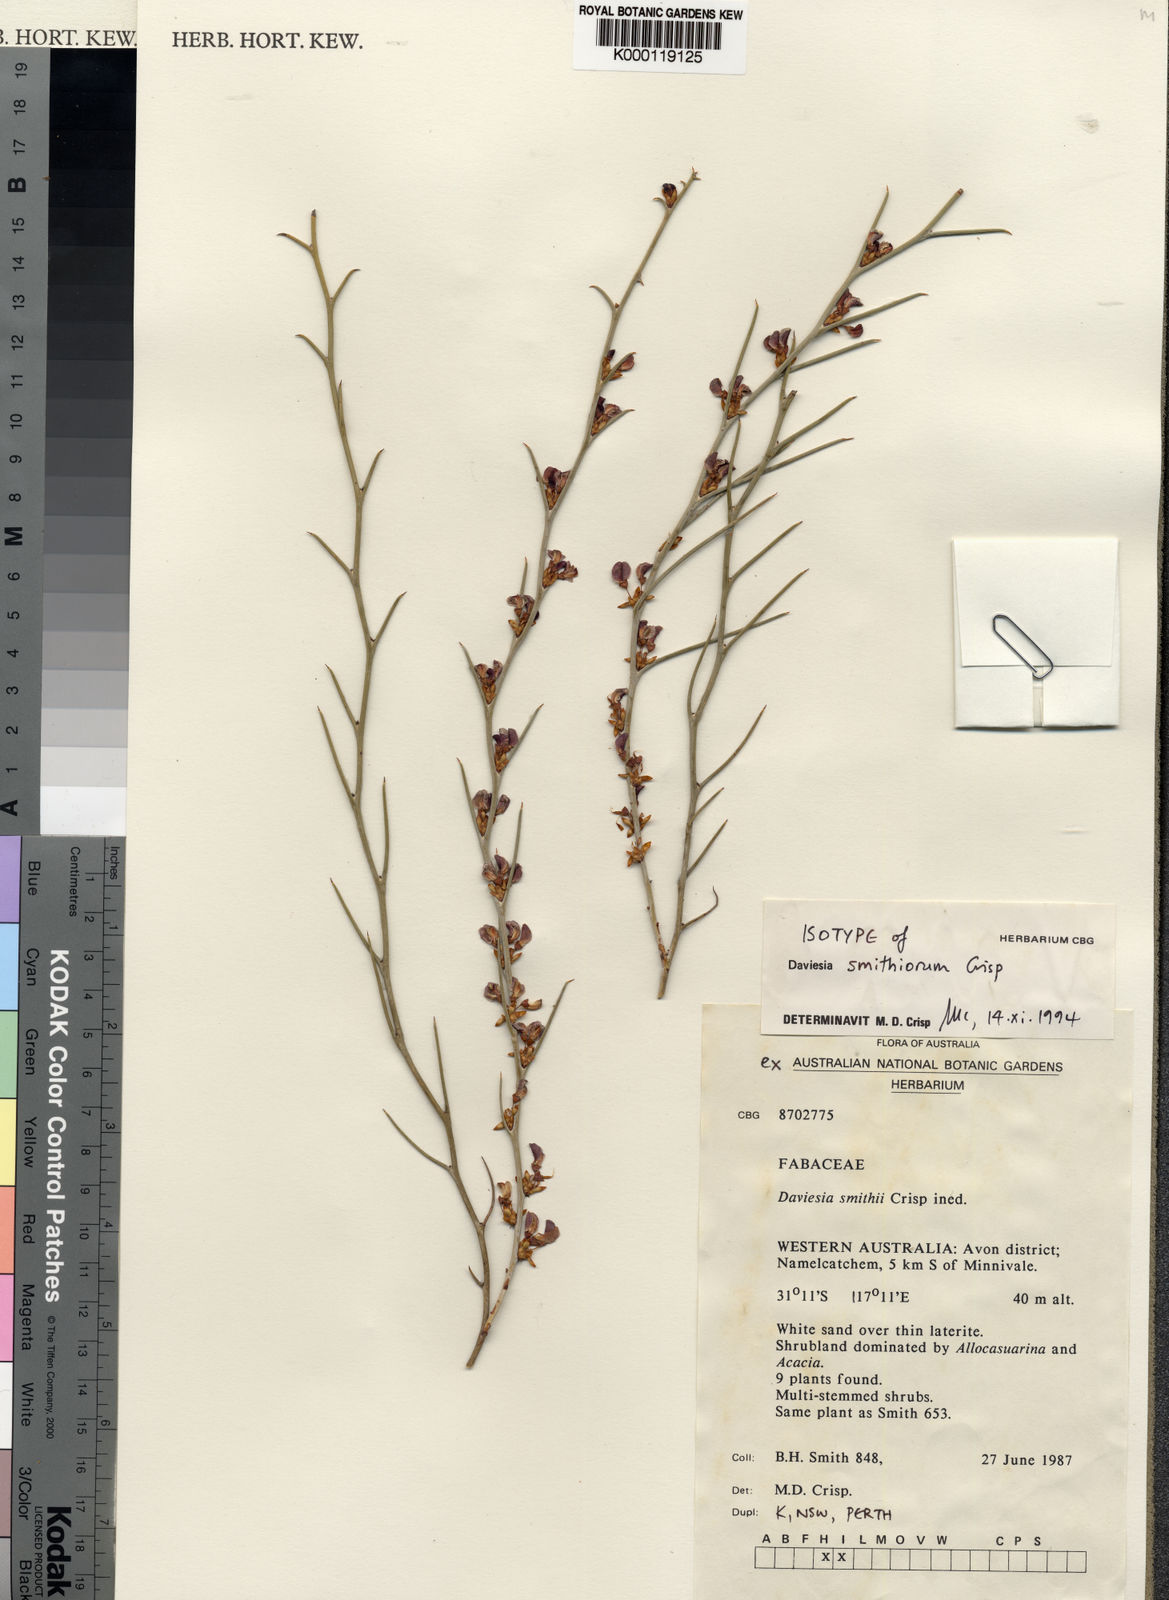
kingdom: Plantae
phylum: Tracheophyta
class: Magnoliopsida
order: Fabales
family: Fabaceae
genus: Daviesia
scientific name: Daviesia smithiorum
